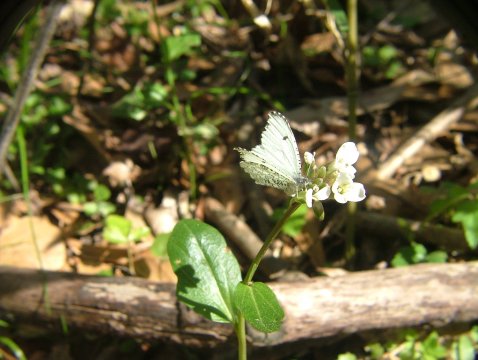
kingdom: Animalia
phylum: Arthropoda
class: Insecta
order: Lepidoptera
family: Pieridae
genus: Anthocharis
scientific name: Anthocharis midea
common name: Falcate Orangetip
